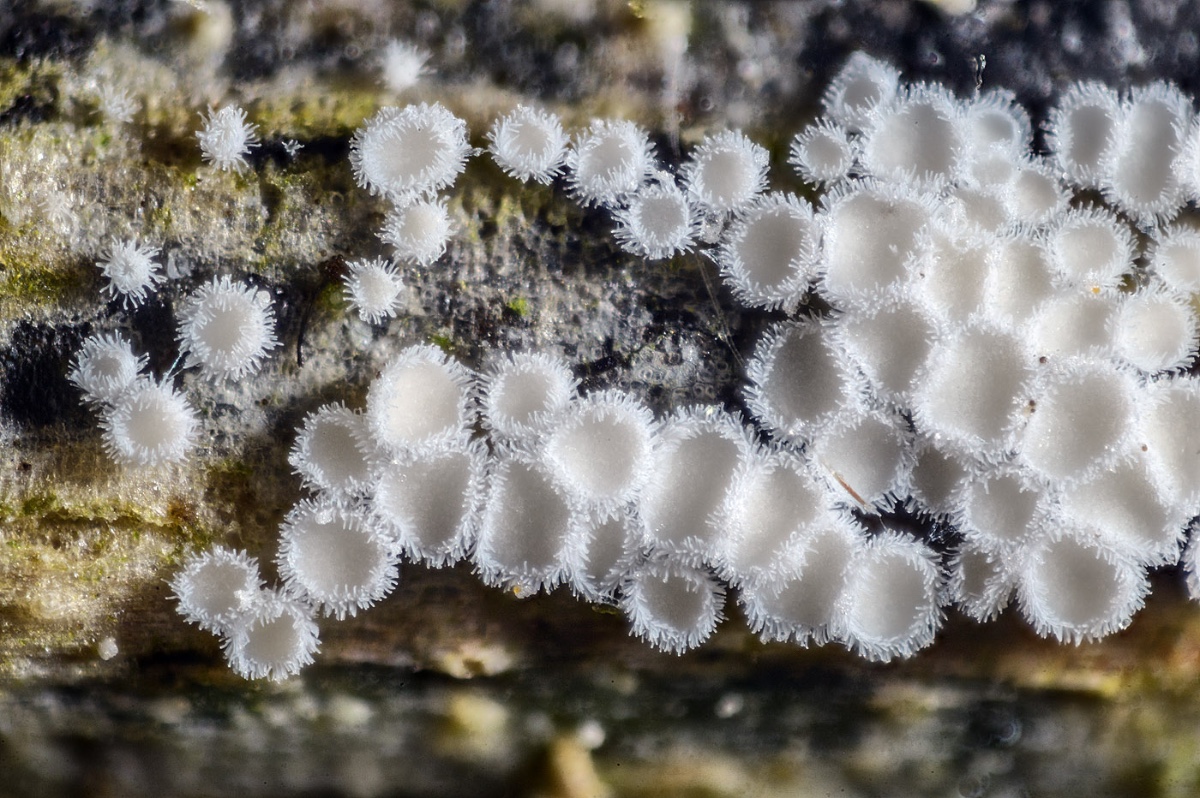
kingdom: Fungi
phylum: Basidiomycota
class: Agaricomycetes
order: Agaricales
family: Niaceae
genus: Lachnella
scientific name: Lachnella villosa
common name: hvid frynserede
